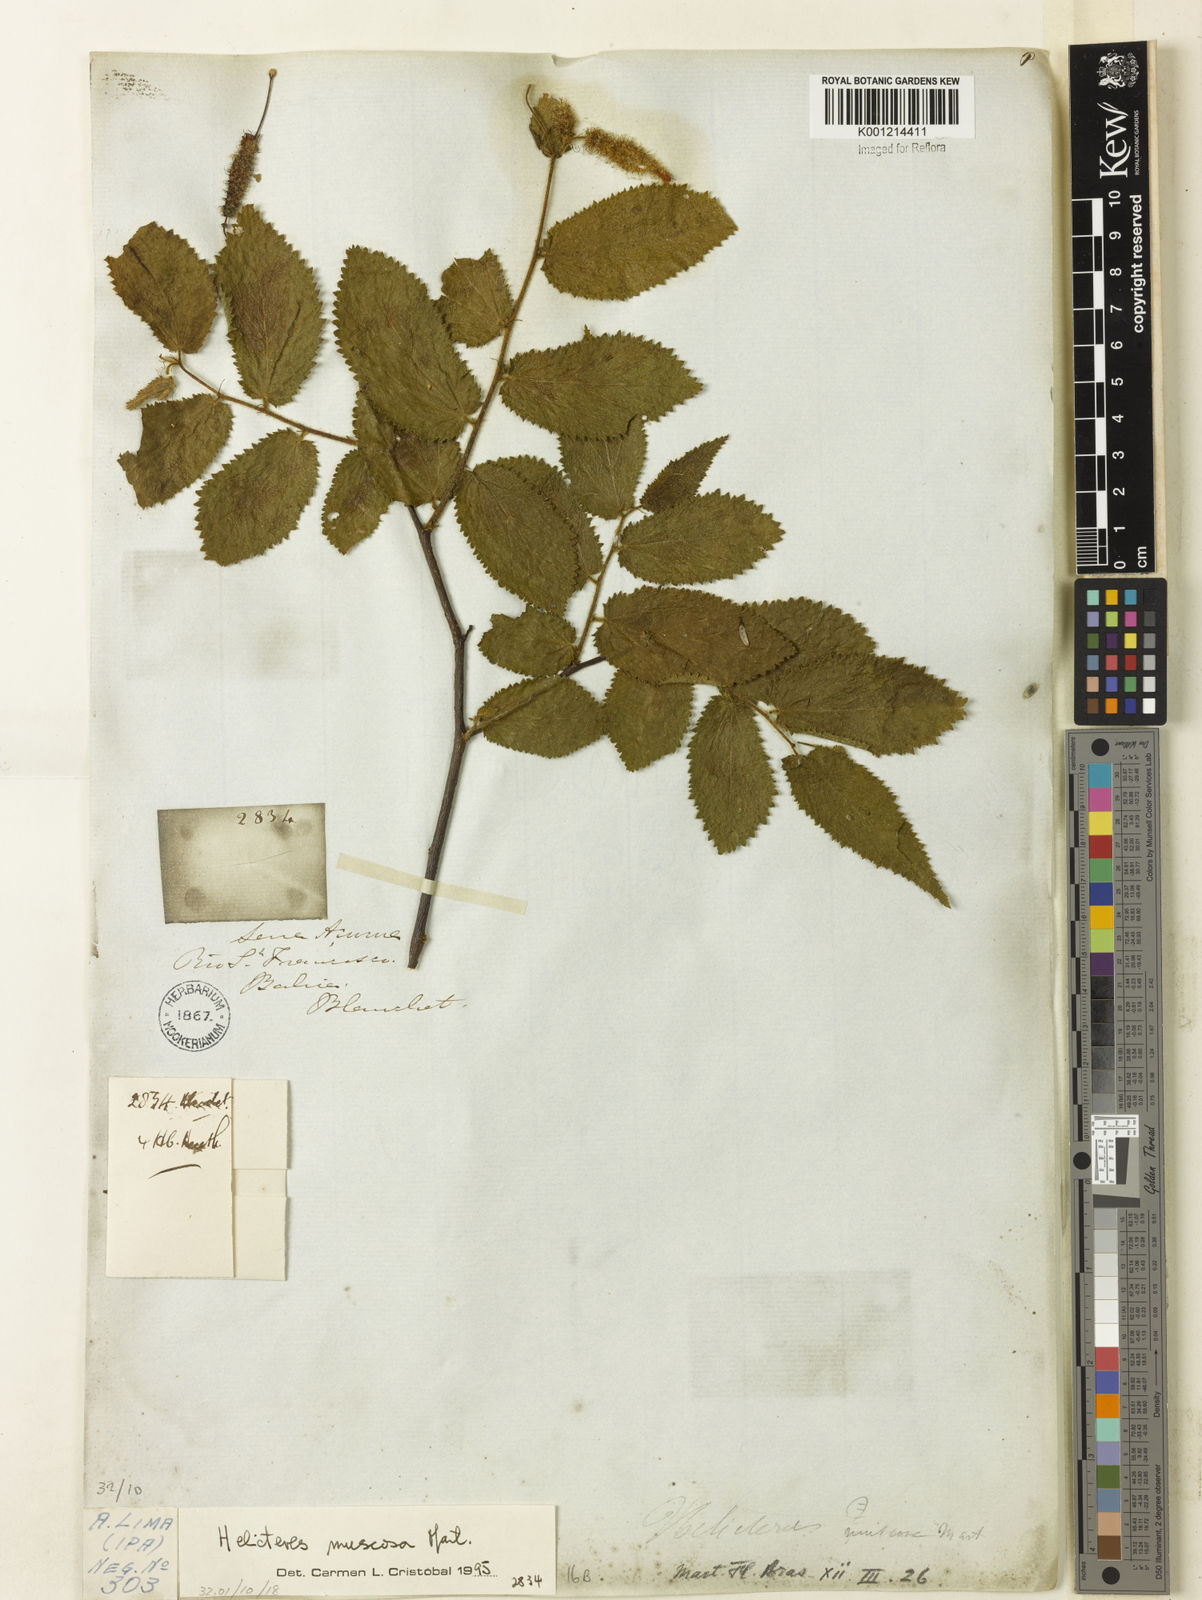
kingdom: Plantae
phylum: Tracheophyta
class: Magnoliopsida
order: Malvales
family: Malvaceae
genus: Helicteres
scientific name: Helicteres muscosa
